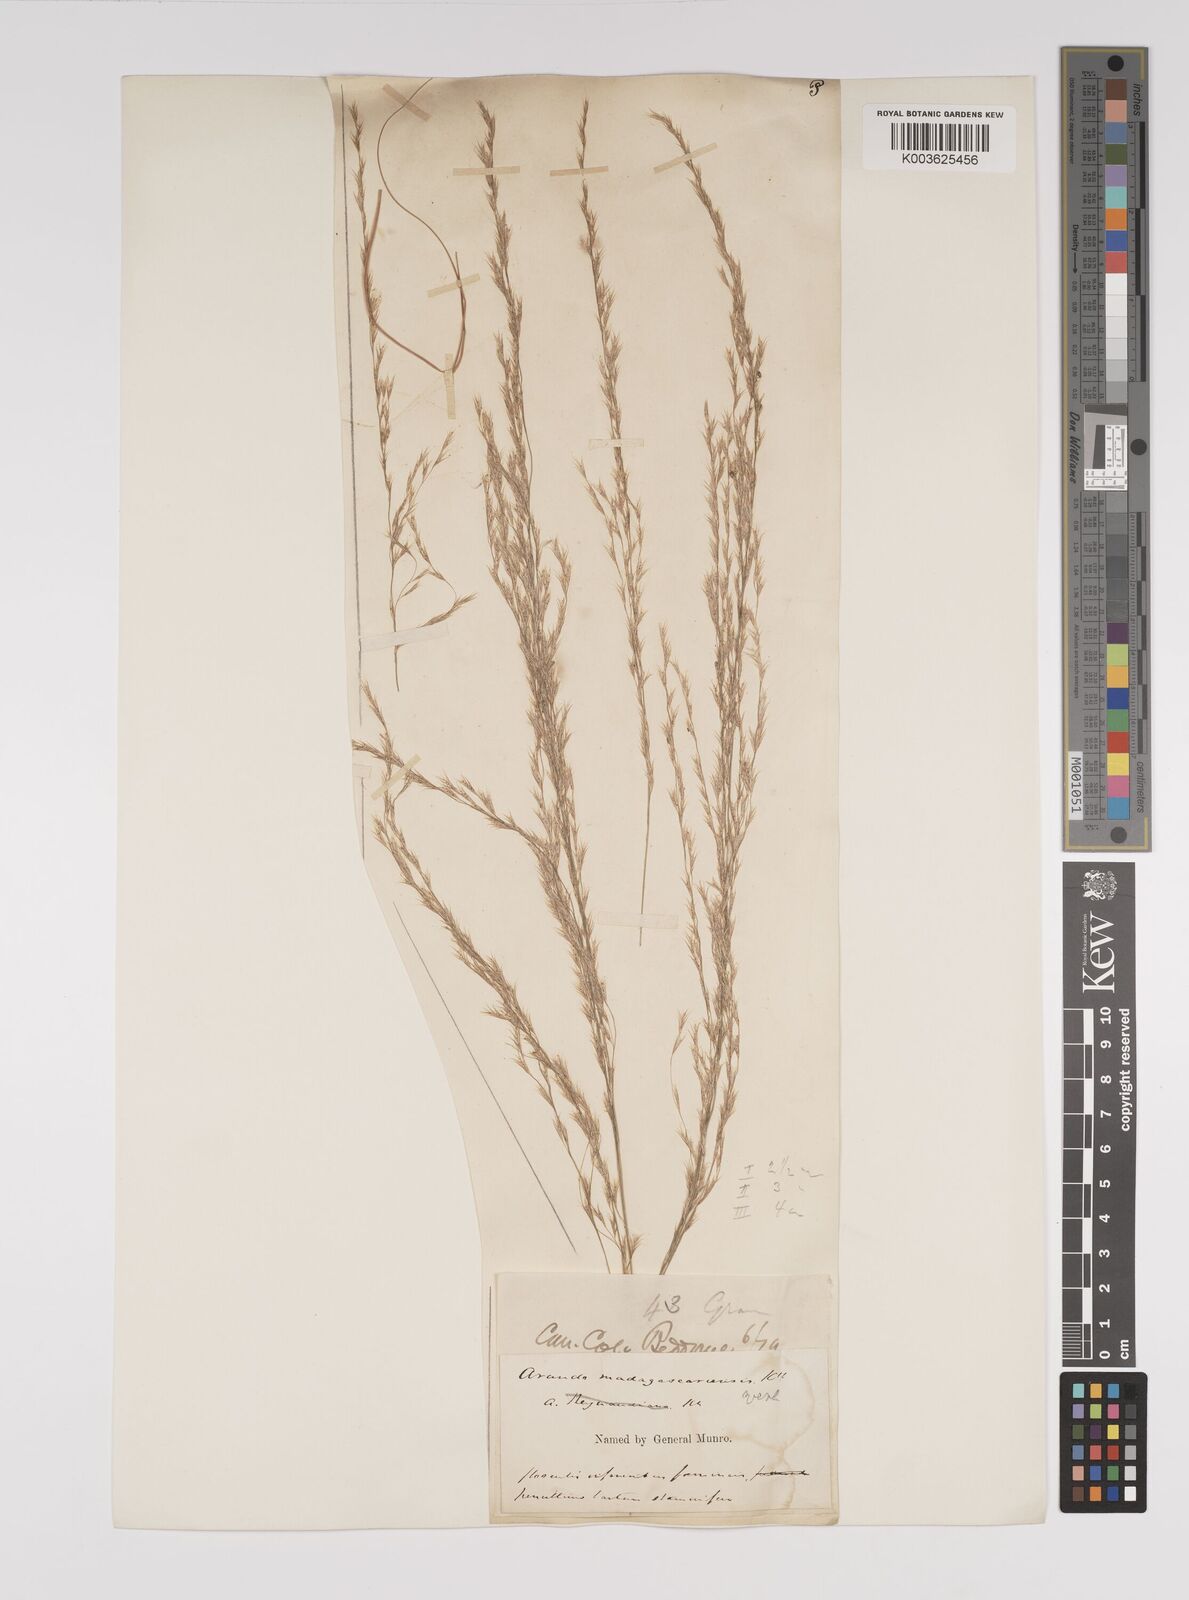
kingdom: Plantae
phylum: Tracheophyta
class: Liliopsida
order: Poales
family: Poaceae
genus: Neyraudia
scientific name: Neyraudia reynaudiana
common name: Silkreed
